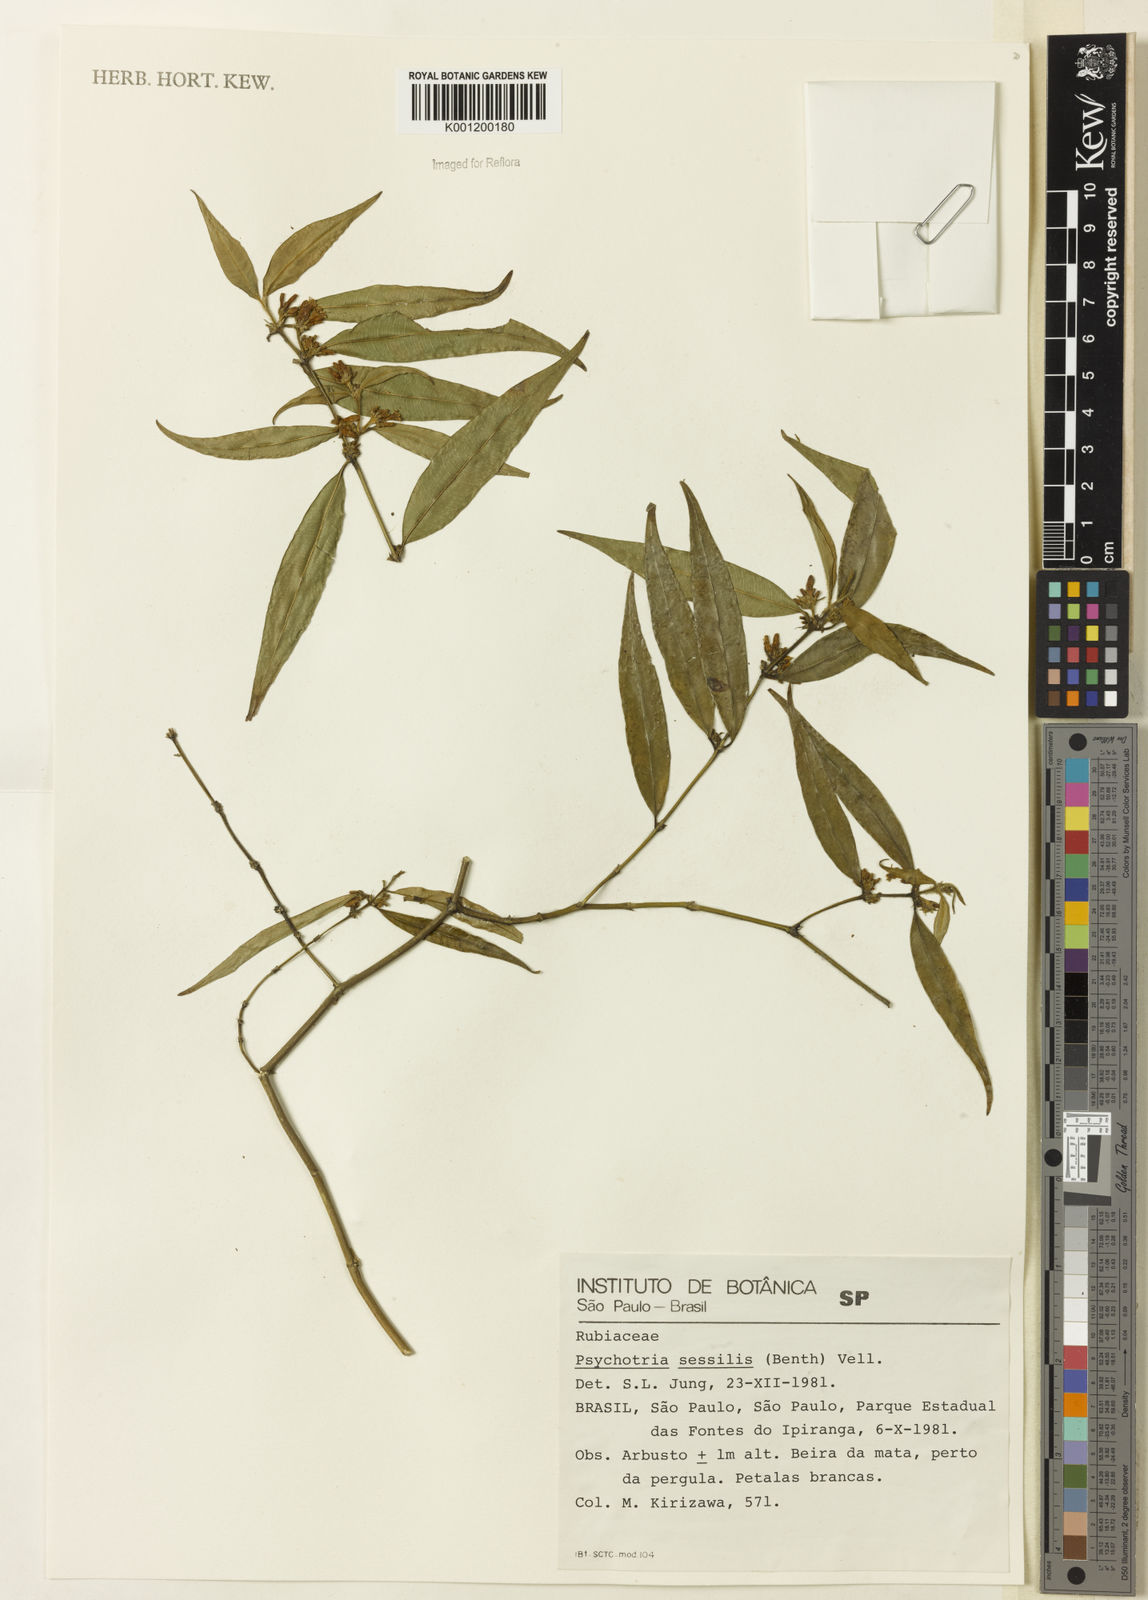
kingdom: Plantae
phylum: Tracheophyta
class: Magnoliopsida
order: Gentianales
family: Rubiaceae
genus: Rudgea
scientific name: Rudgea sessilis
